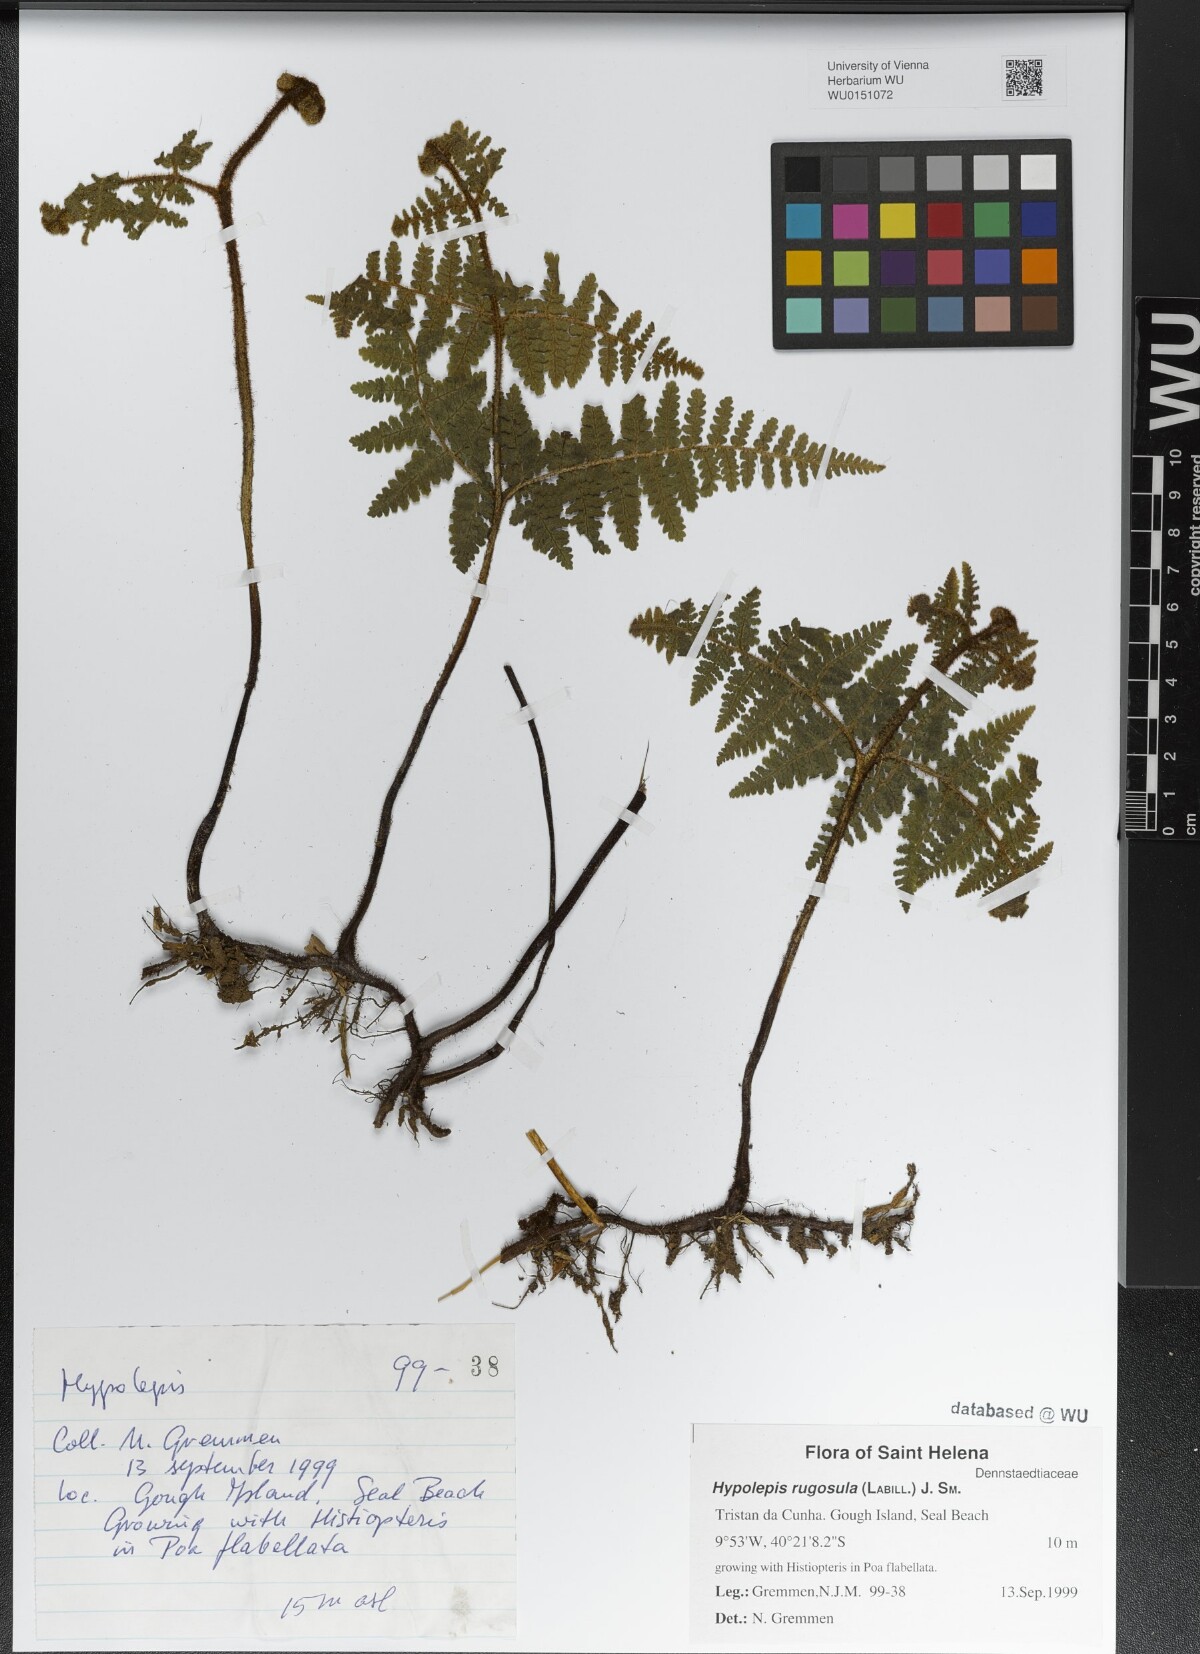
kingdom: Plantae
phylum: Tracheophyta
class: Polypodiopsida
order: Polypodiales
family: Dennstaedtiaceae
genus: Hypolepis
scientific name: Hypolepis rugosula
